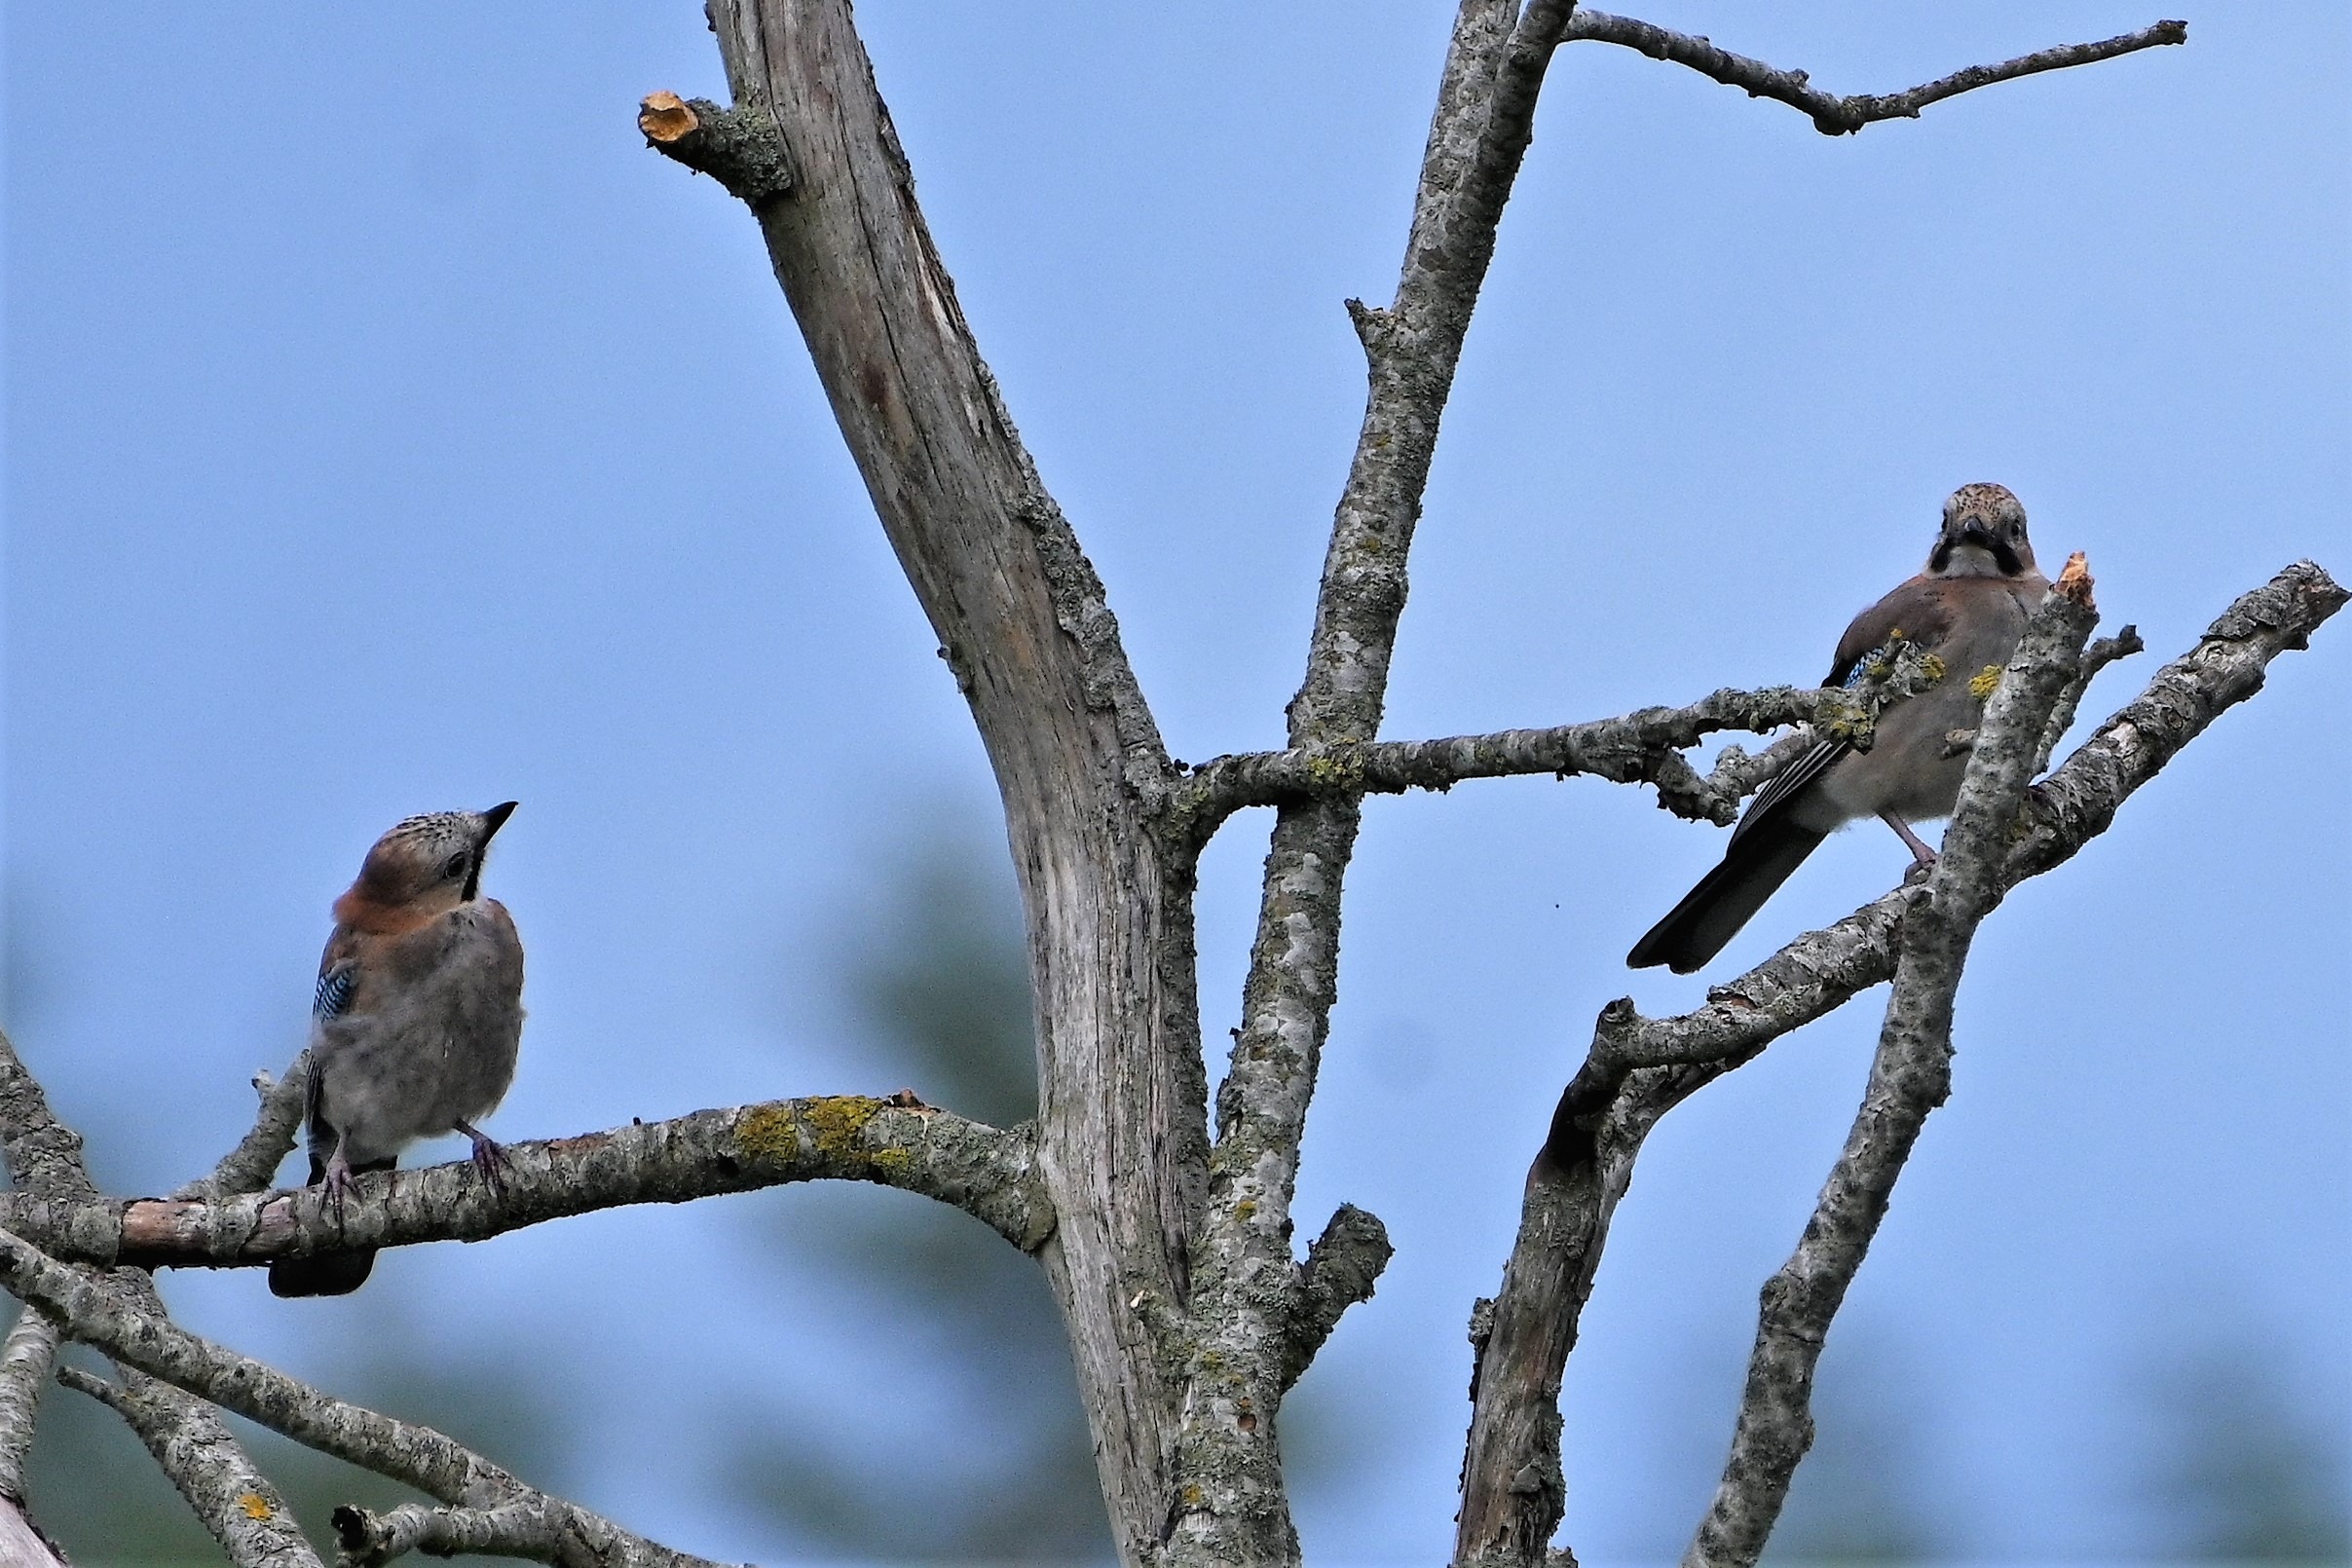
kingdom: Animalia
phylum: Chordata
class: Aves
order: Passeriformes
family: Corvidae
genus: Garrulus
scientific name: Garrulus glandarius
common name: Skovskade
